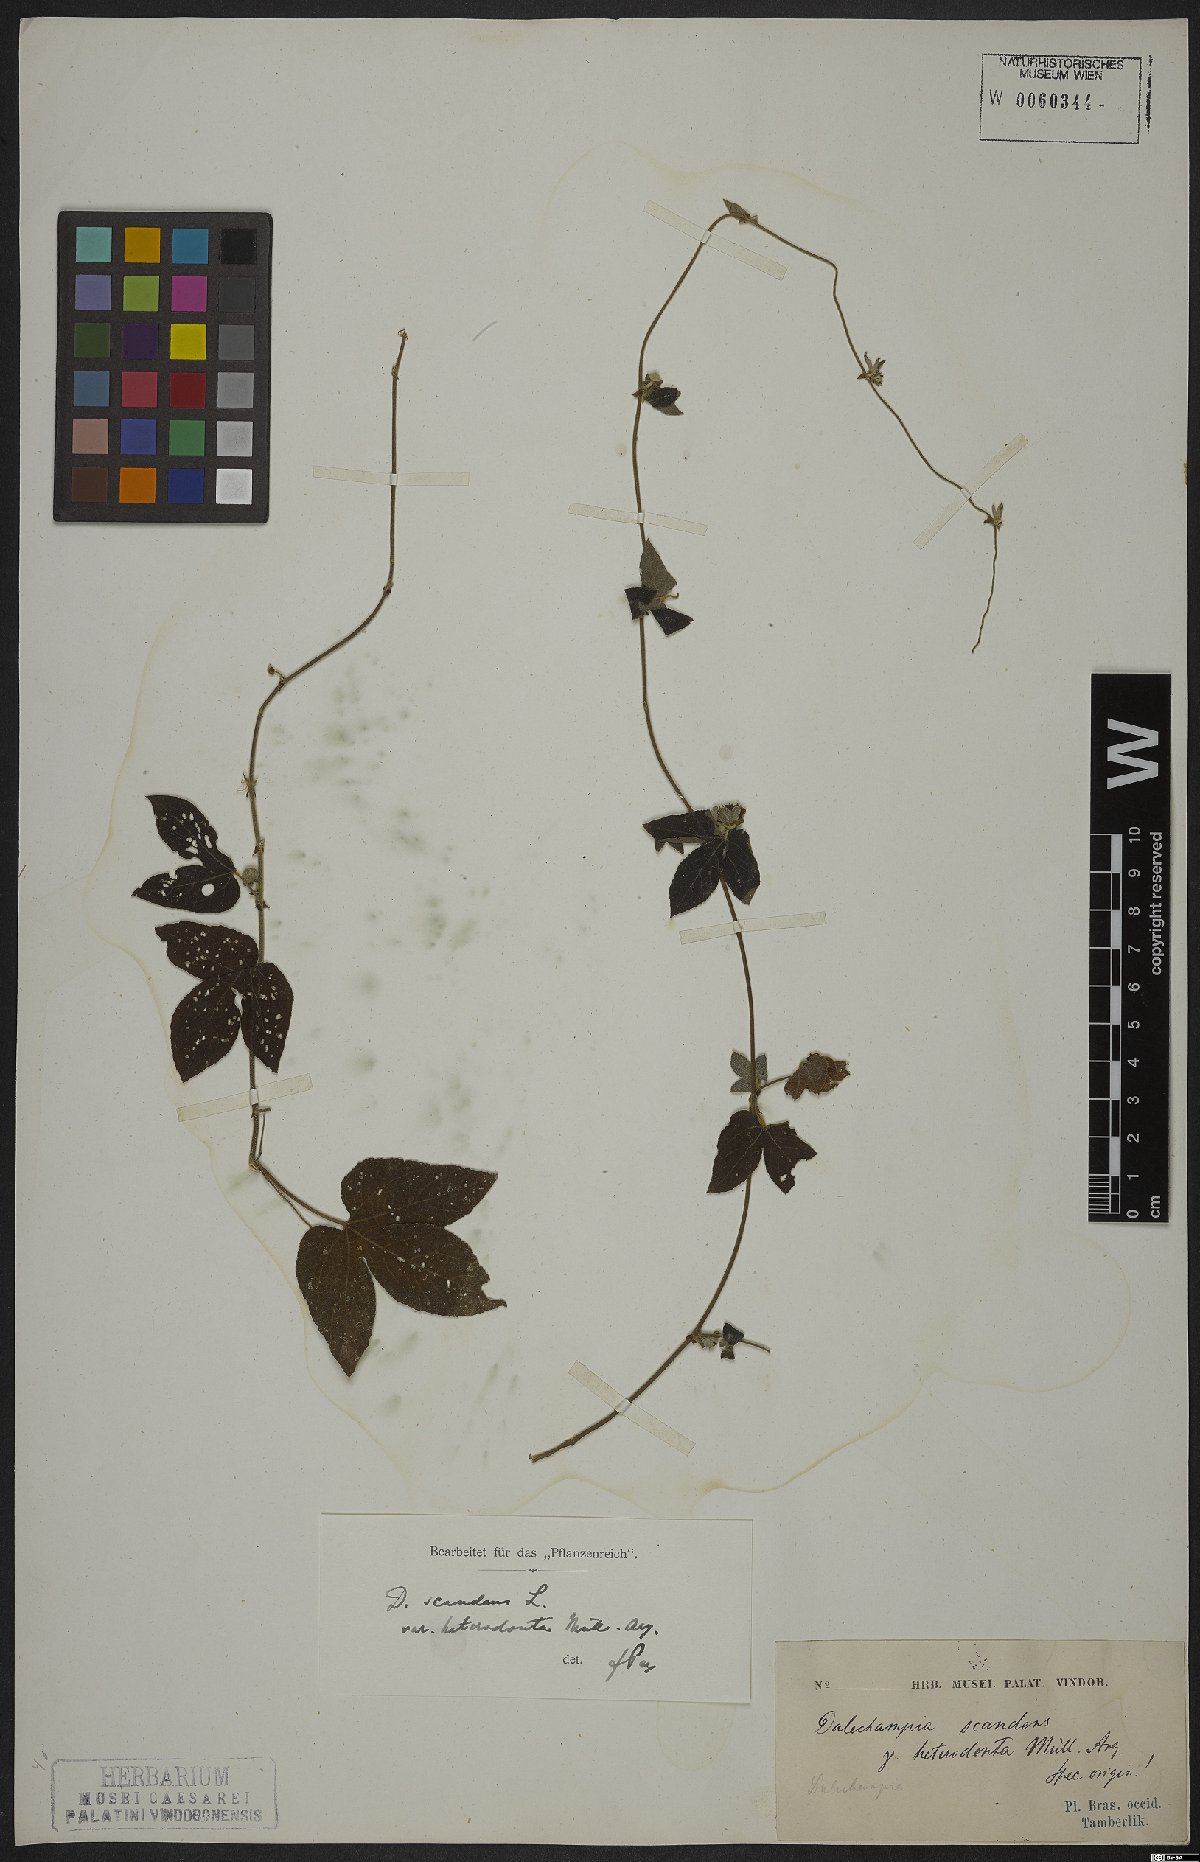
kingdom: Plantae
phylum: Tracheophyta
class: Magnoliopsida
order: Malpighiales
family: Euphorbiaceae
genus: Dalechampia
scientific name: Dalechampia scandens
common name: Spurgecreeper
